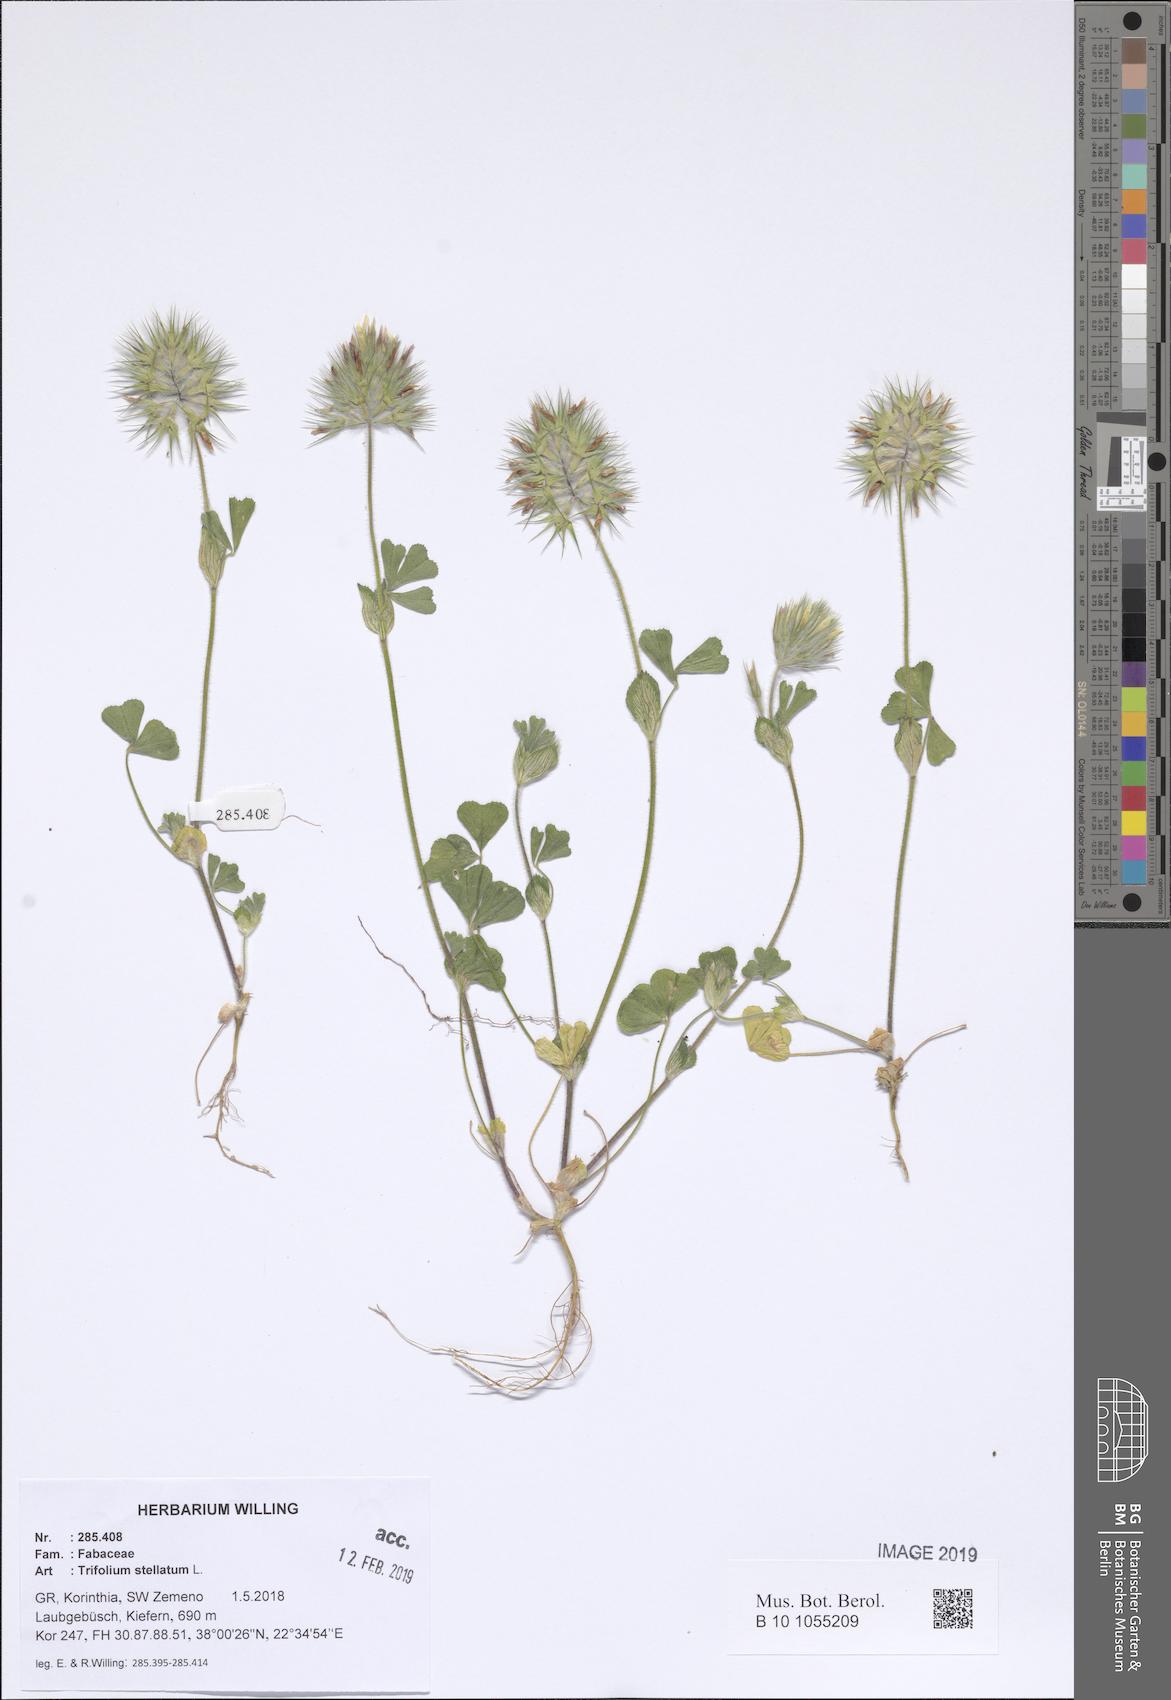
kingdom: Plantae
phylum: Tracheophyta
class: Magnoliopsida
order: Fabales
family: Fabaceae
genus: Trifolium
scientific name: Trifolium stellatum
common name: Starry clover
